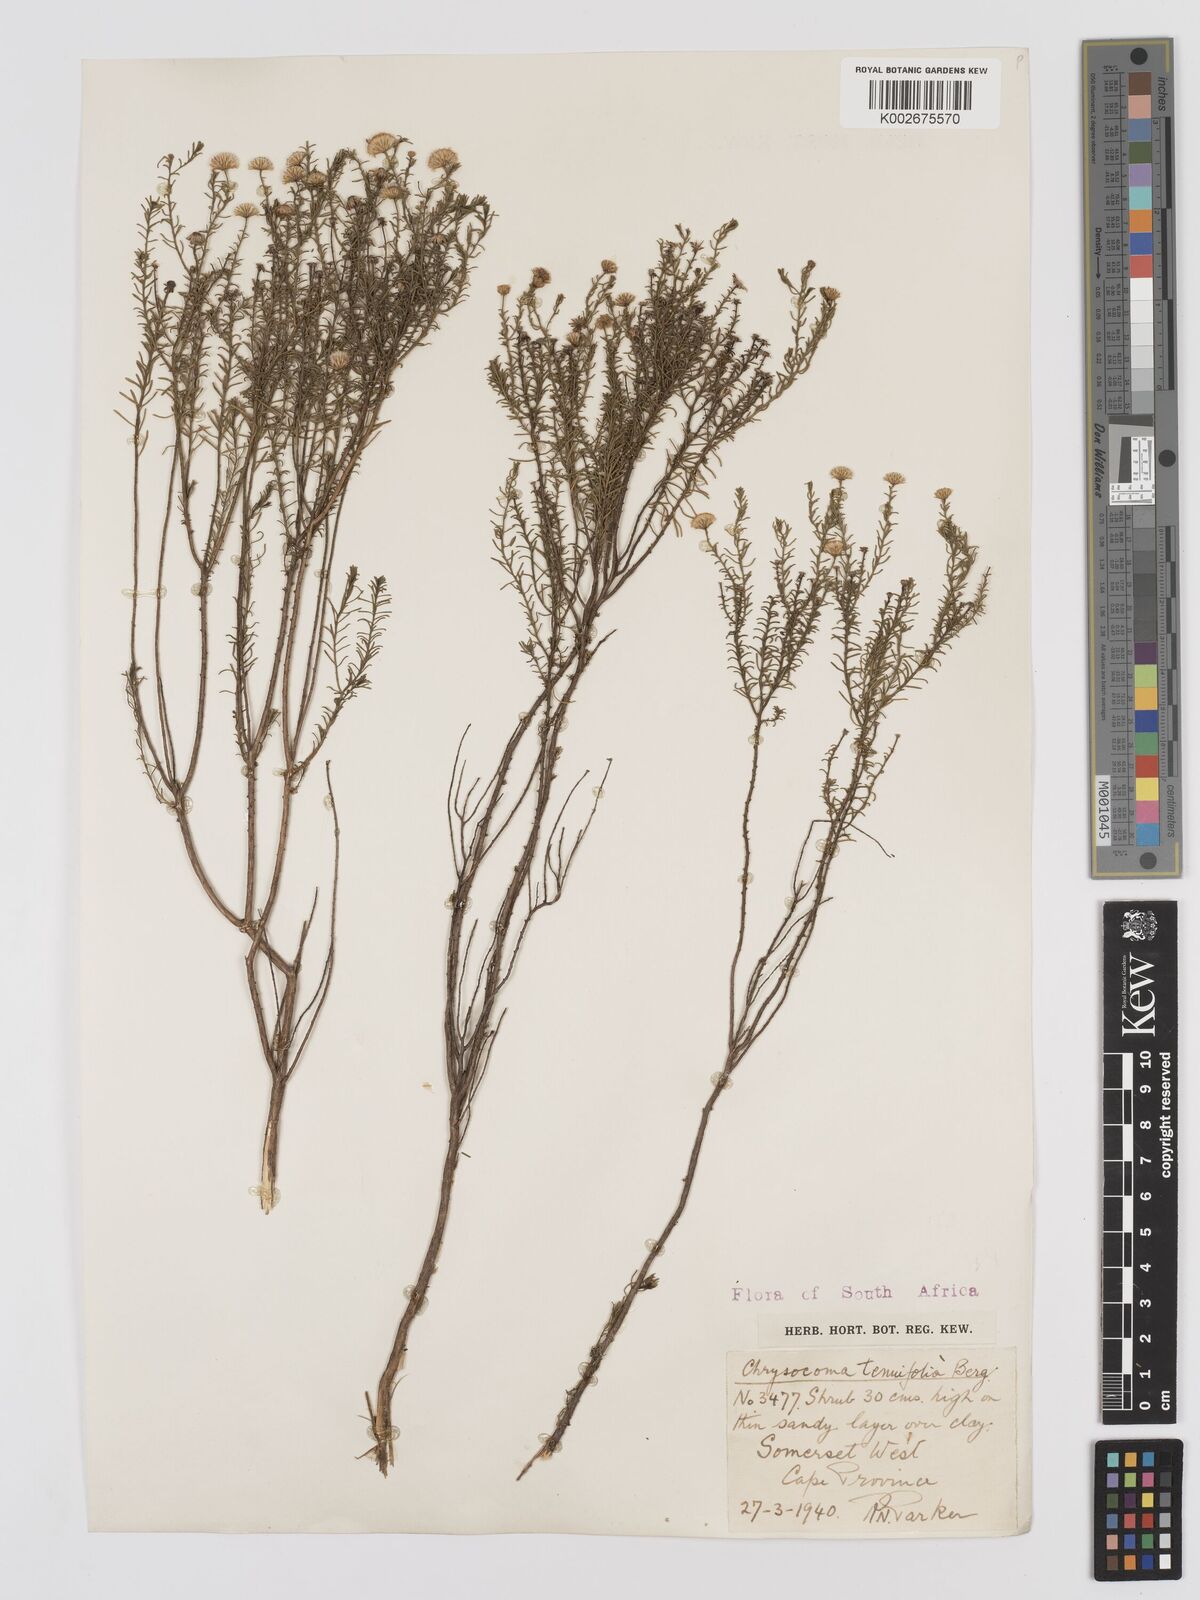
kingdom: Plantae
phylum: Tracheophyta
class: Magnoliopsida
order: Asterales
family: Asteraceae
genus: Chrysocoma
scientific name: Chrysocoma ciliata
